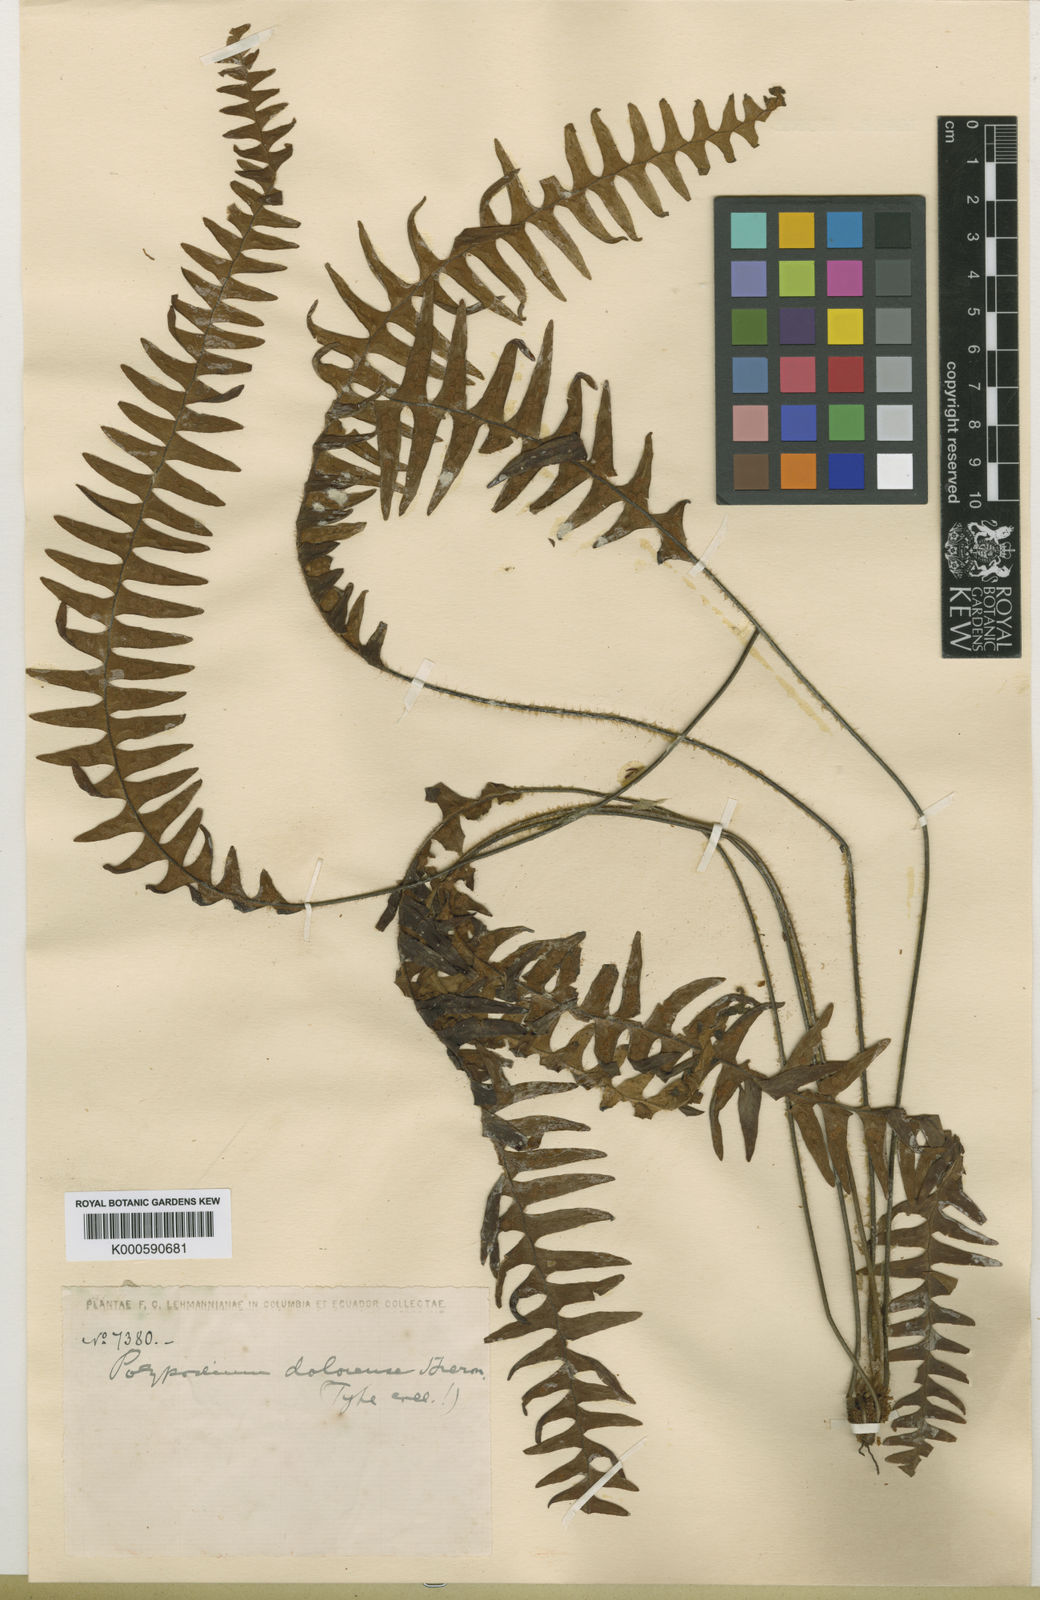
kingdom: Plantae
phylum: Tracheophyta
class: Polypodiopsida
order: Polypodiales
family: Polypodiaceae
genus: Terpsichore
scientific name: Terpsichore dolorensis
